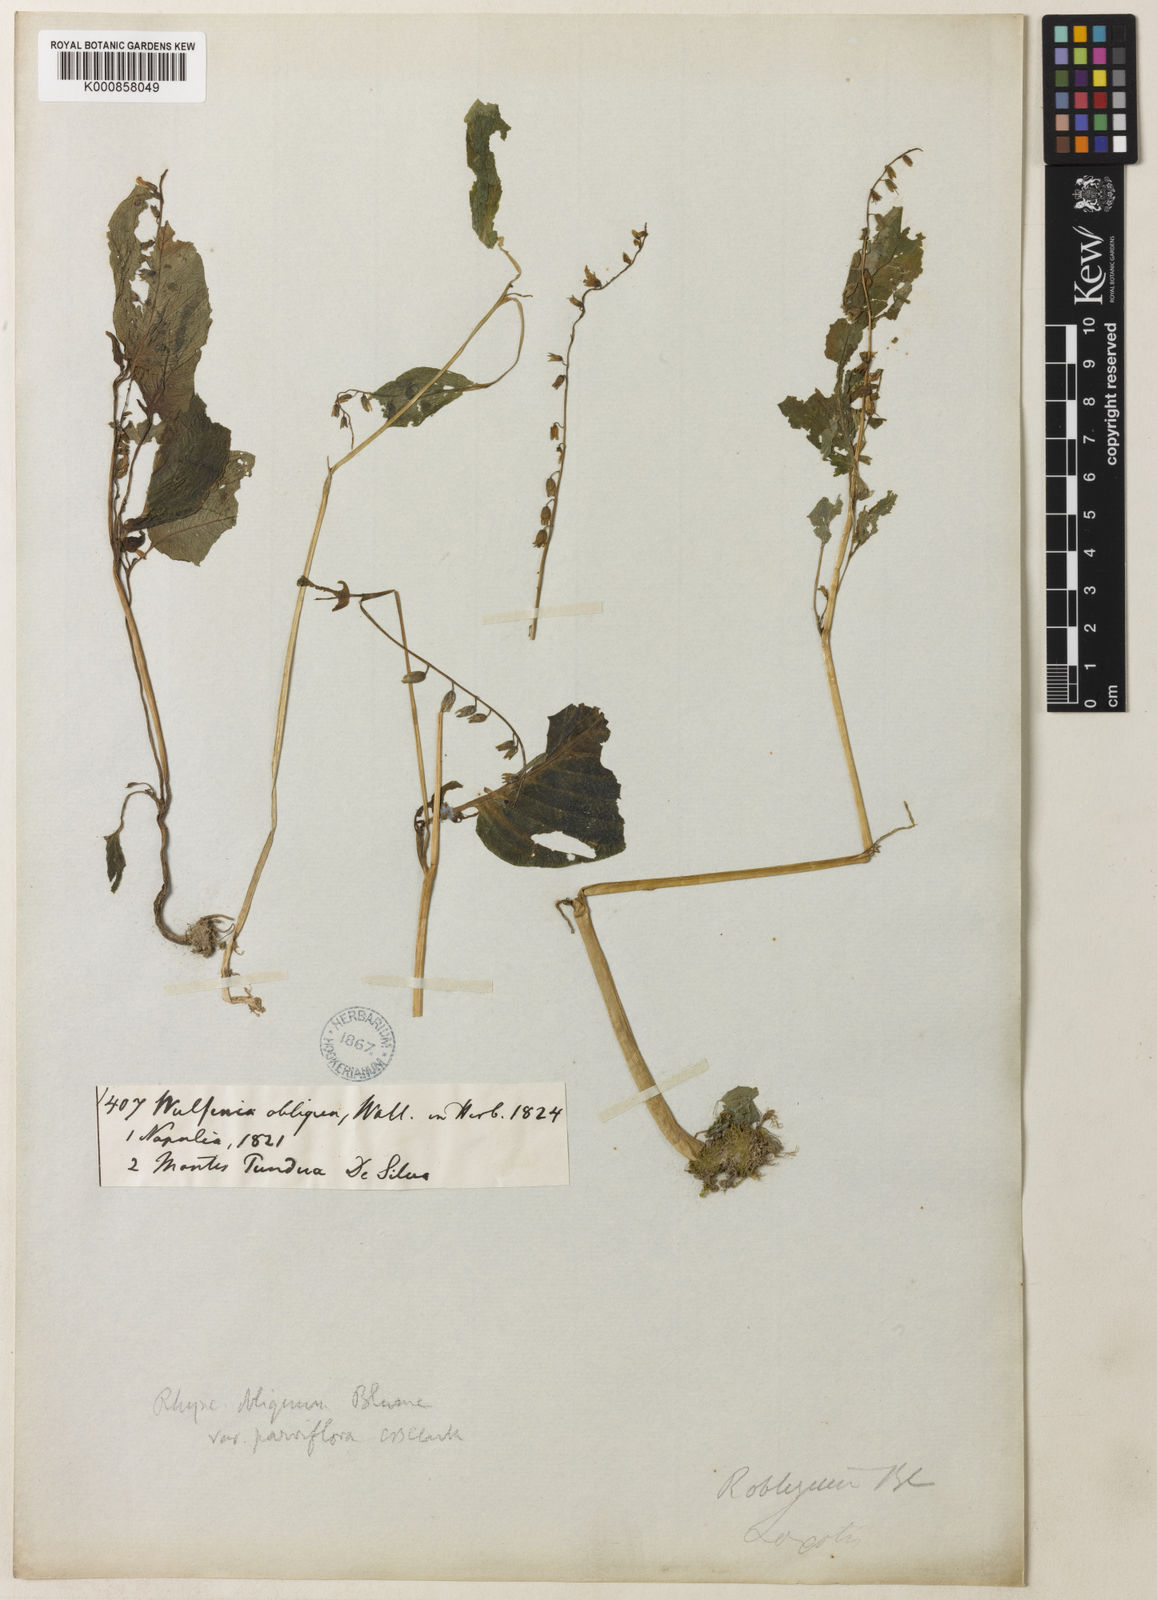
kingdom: Plantae
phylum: Tracheophyta
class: Magnoliopsida
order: Lamiales
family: Gesneriaceae
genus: Rhynchoglossum
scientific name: Rhynchoglossum obliquum
